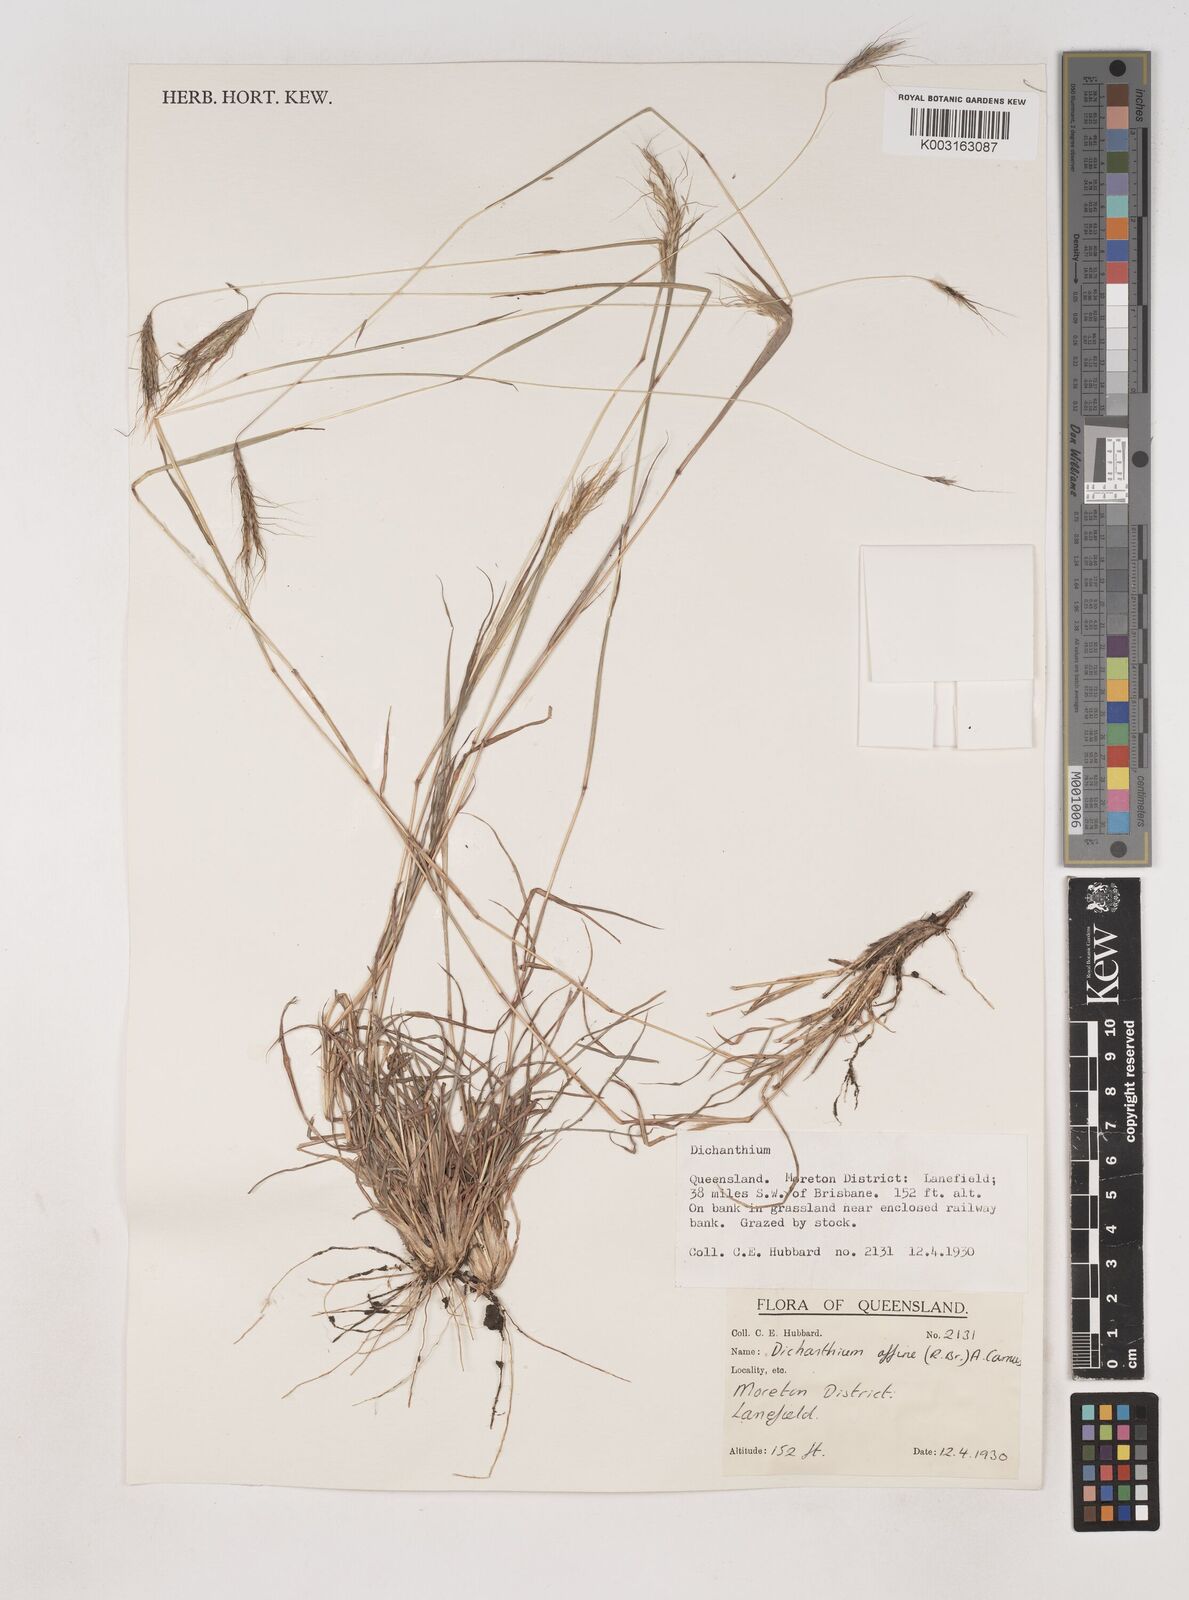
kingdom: Plantae
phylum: Tracheophyta
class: Liliopsida
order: Poales
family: Poaceae
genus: Dichanthium
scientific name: Dichanthium sericeum
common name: Silky bluestem
